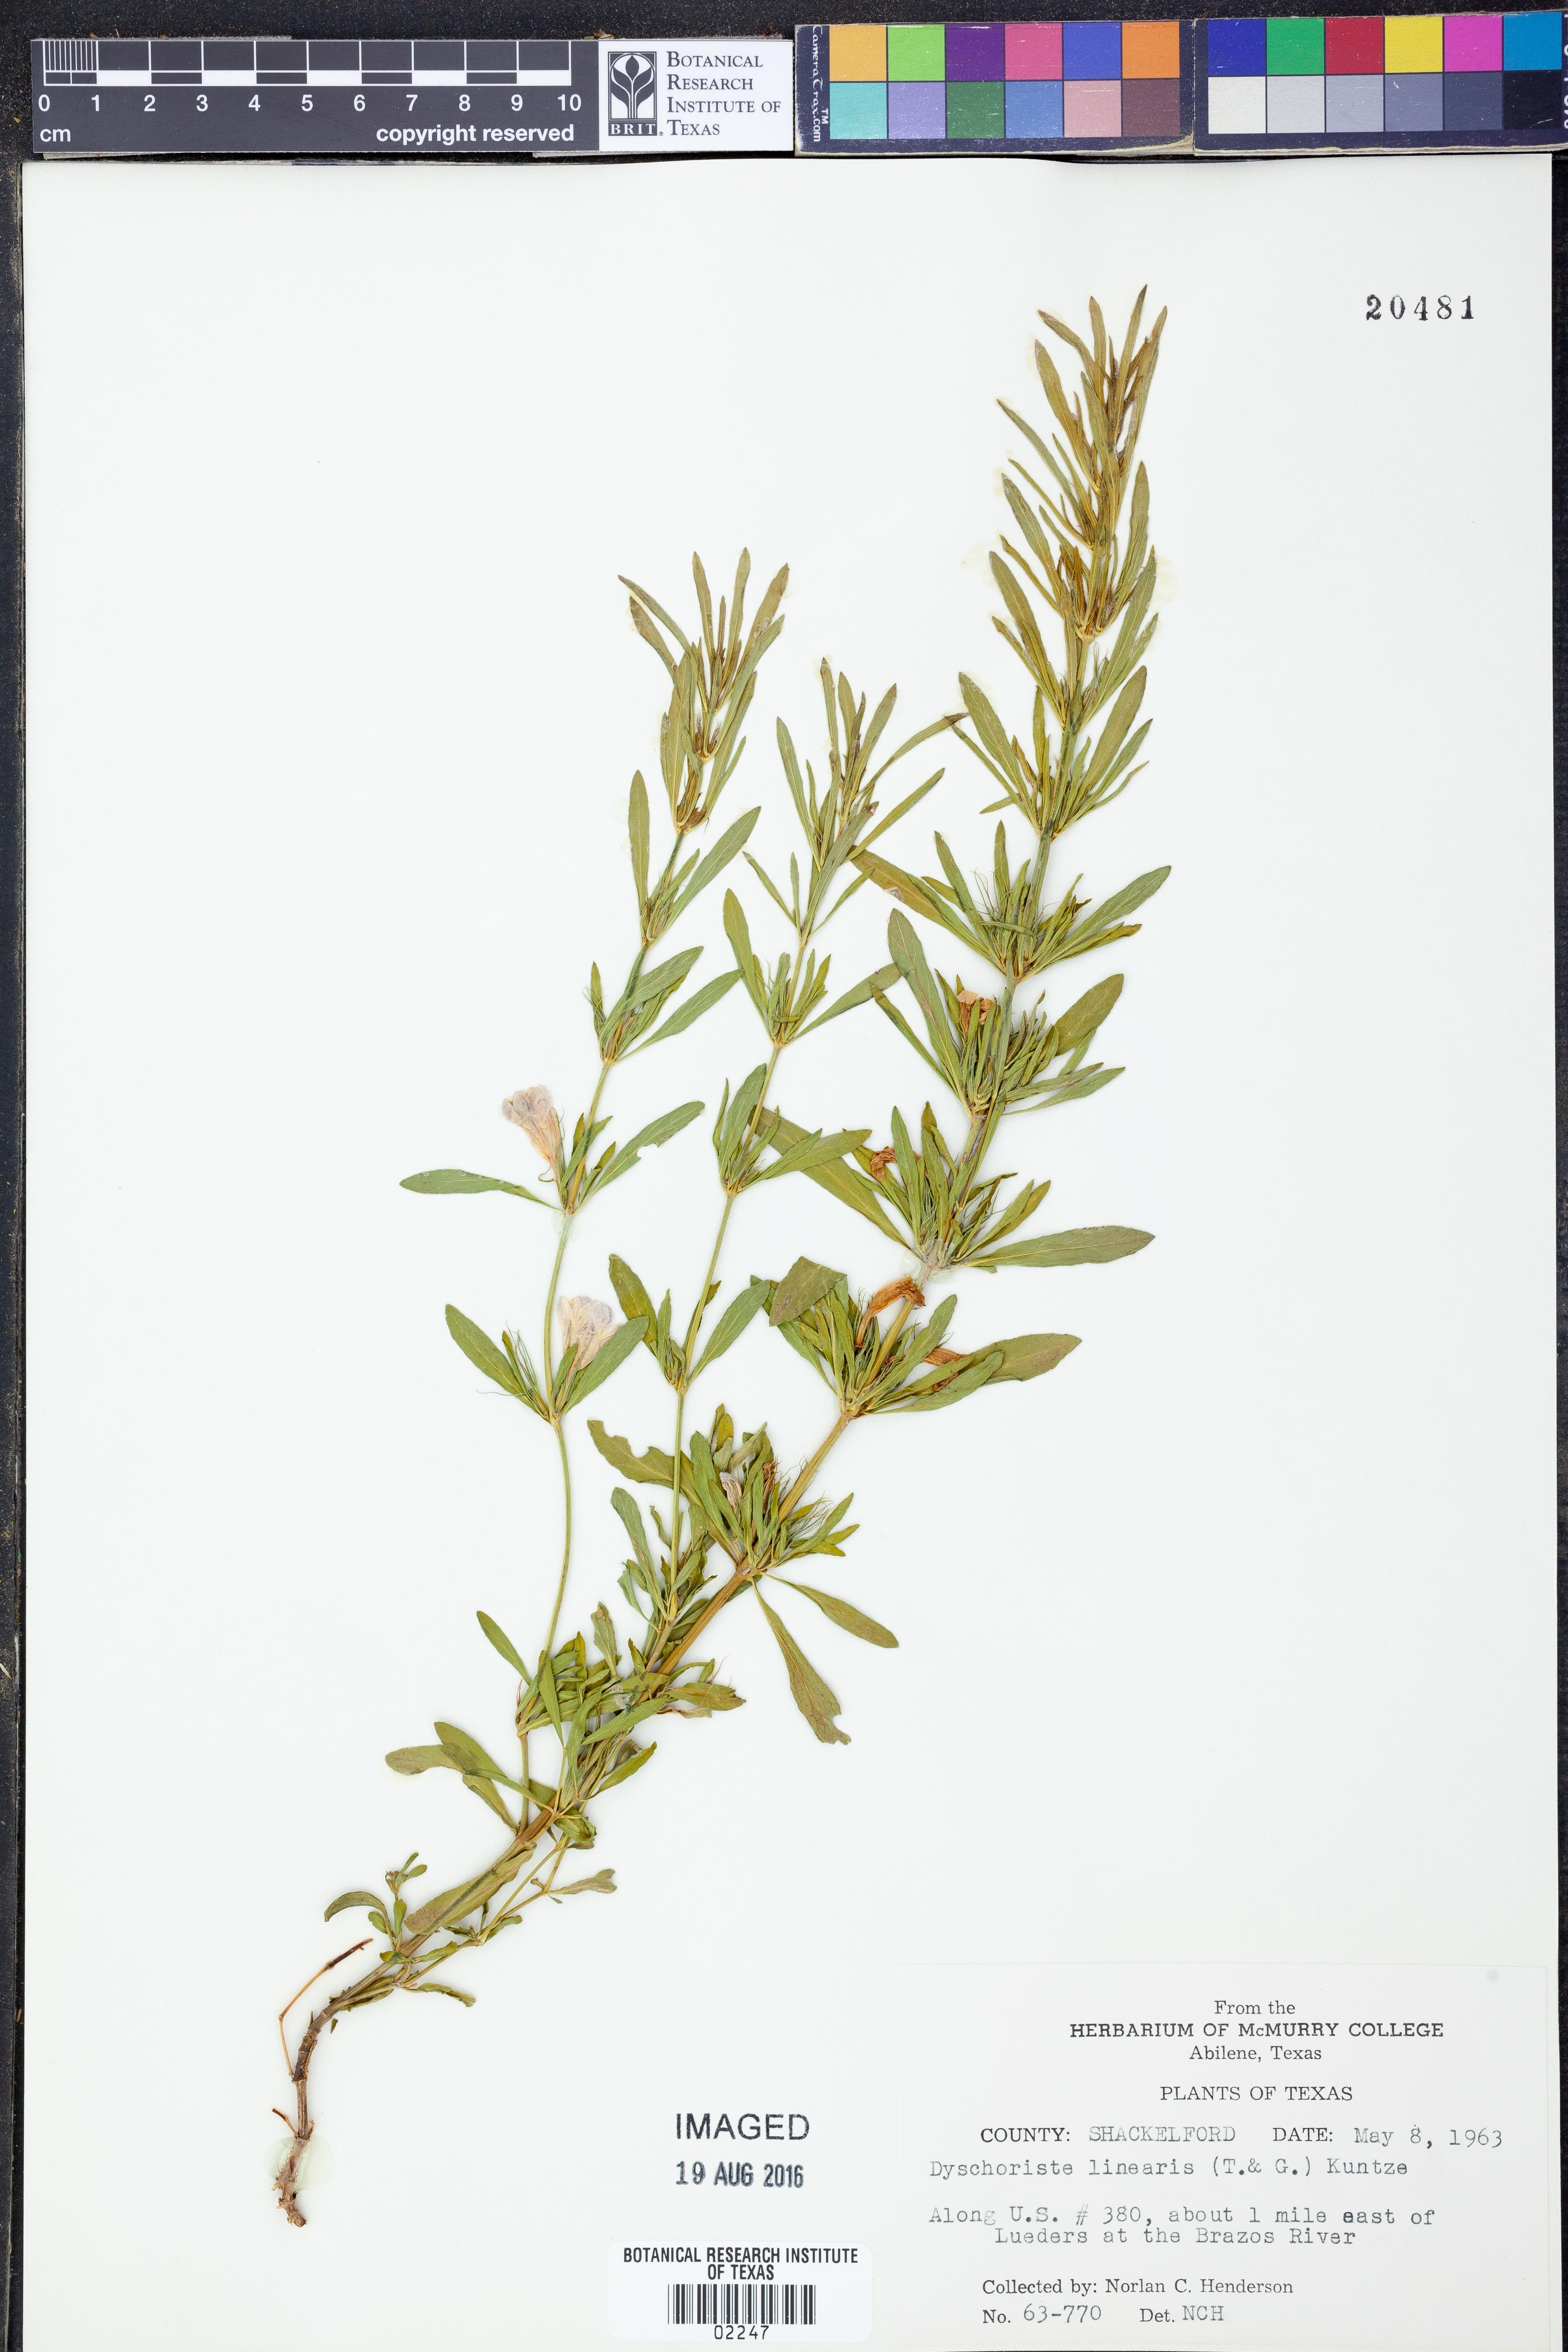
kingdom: Plantae
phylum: Tracheophyta
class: Magnoliopsida
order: Lamiales
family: Acanthaceae
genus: Dyschoriste
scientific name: Dyschoriste linearis
